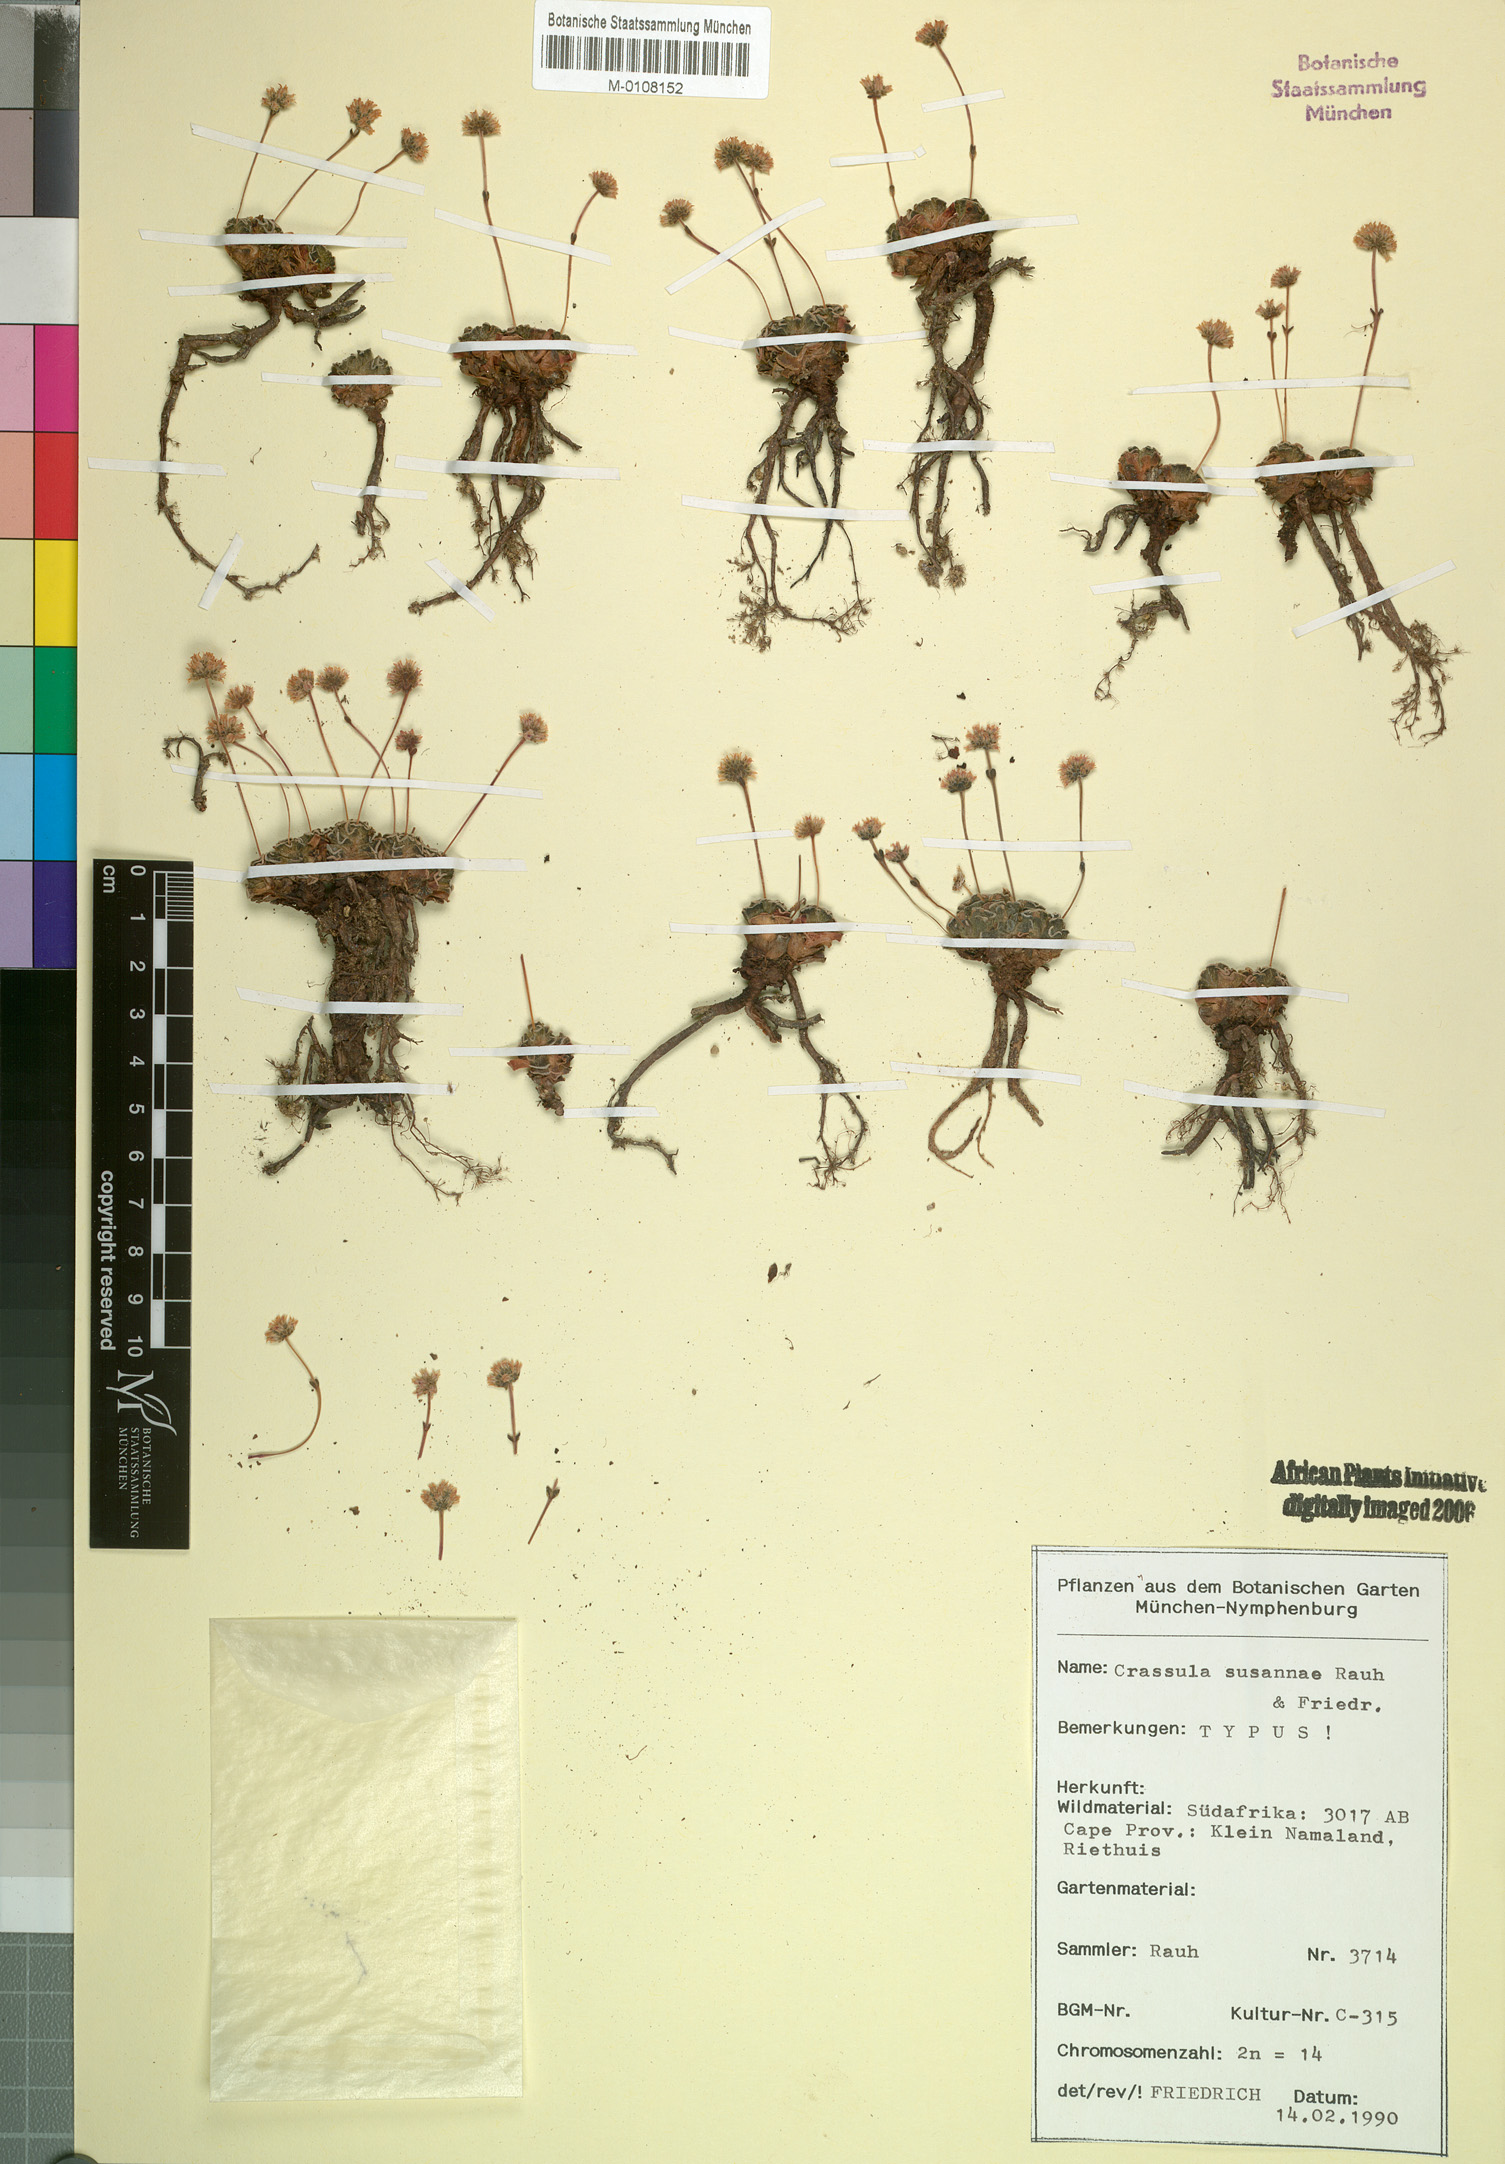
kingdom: Plantae
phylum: Tracheophyta
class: Magnoliopsida
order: Saxifragales
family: Crassulaceae
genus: Crassula
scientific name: Crassula susannae
